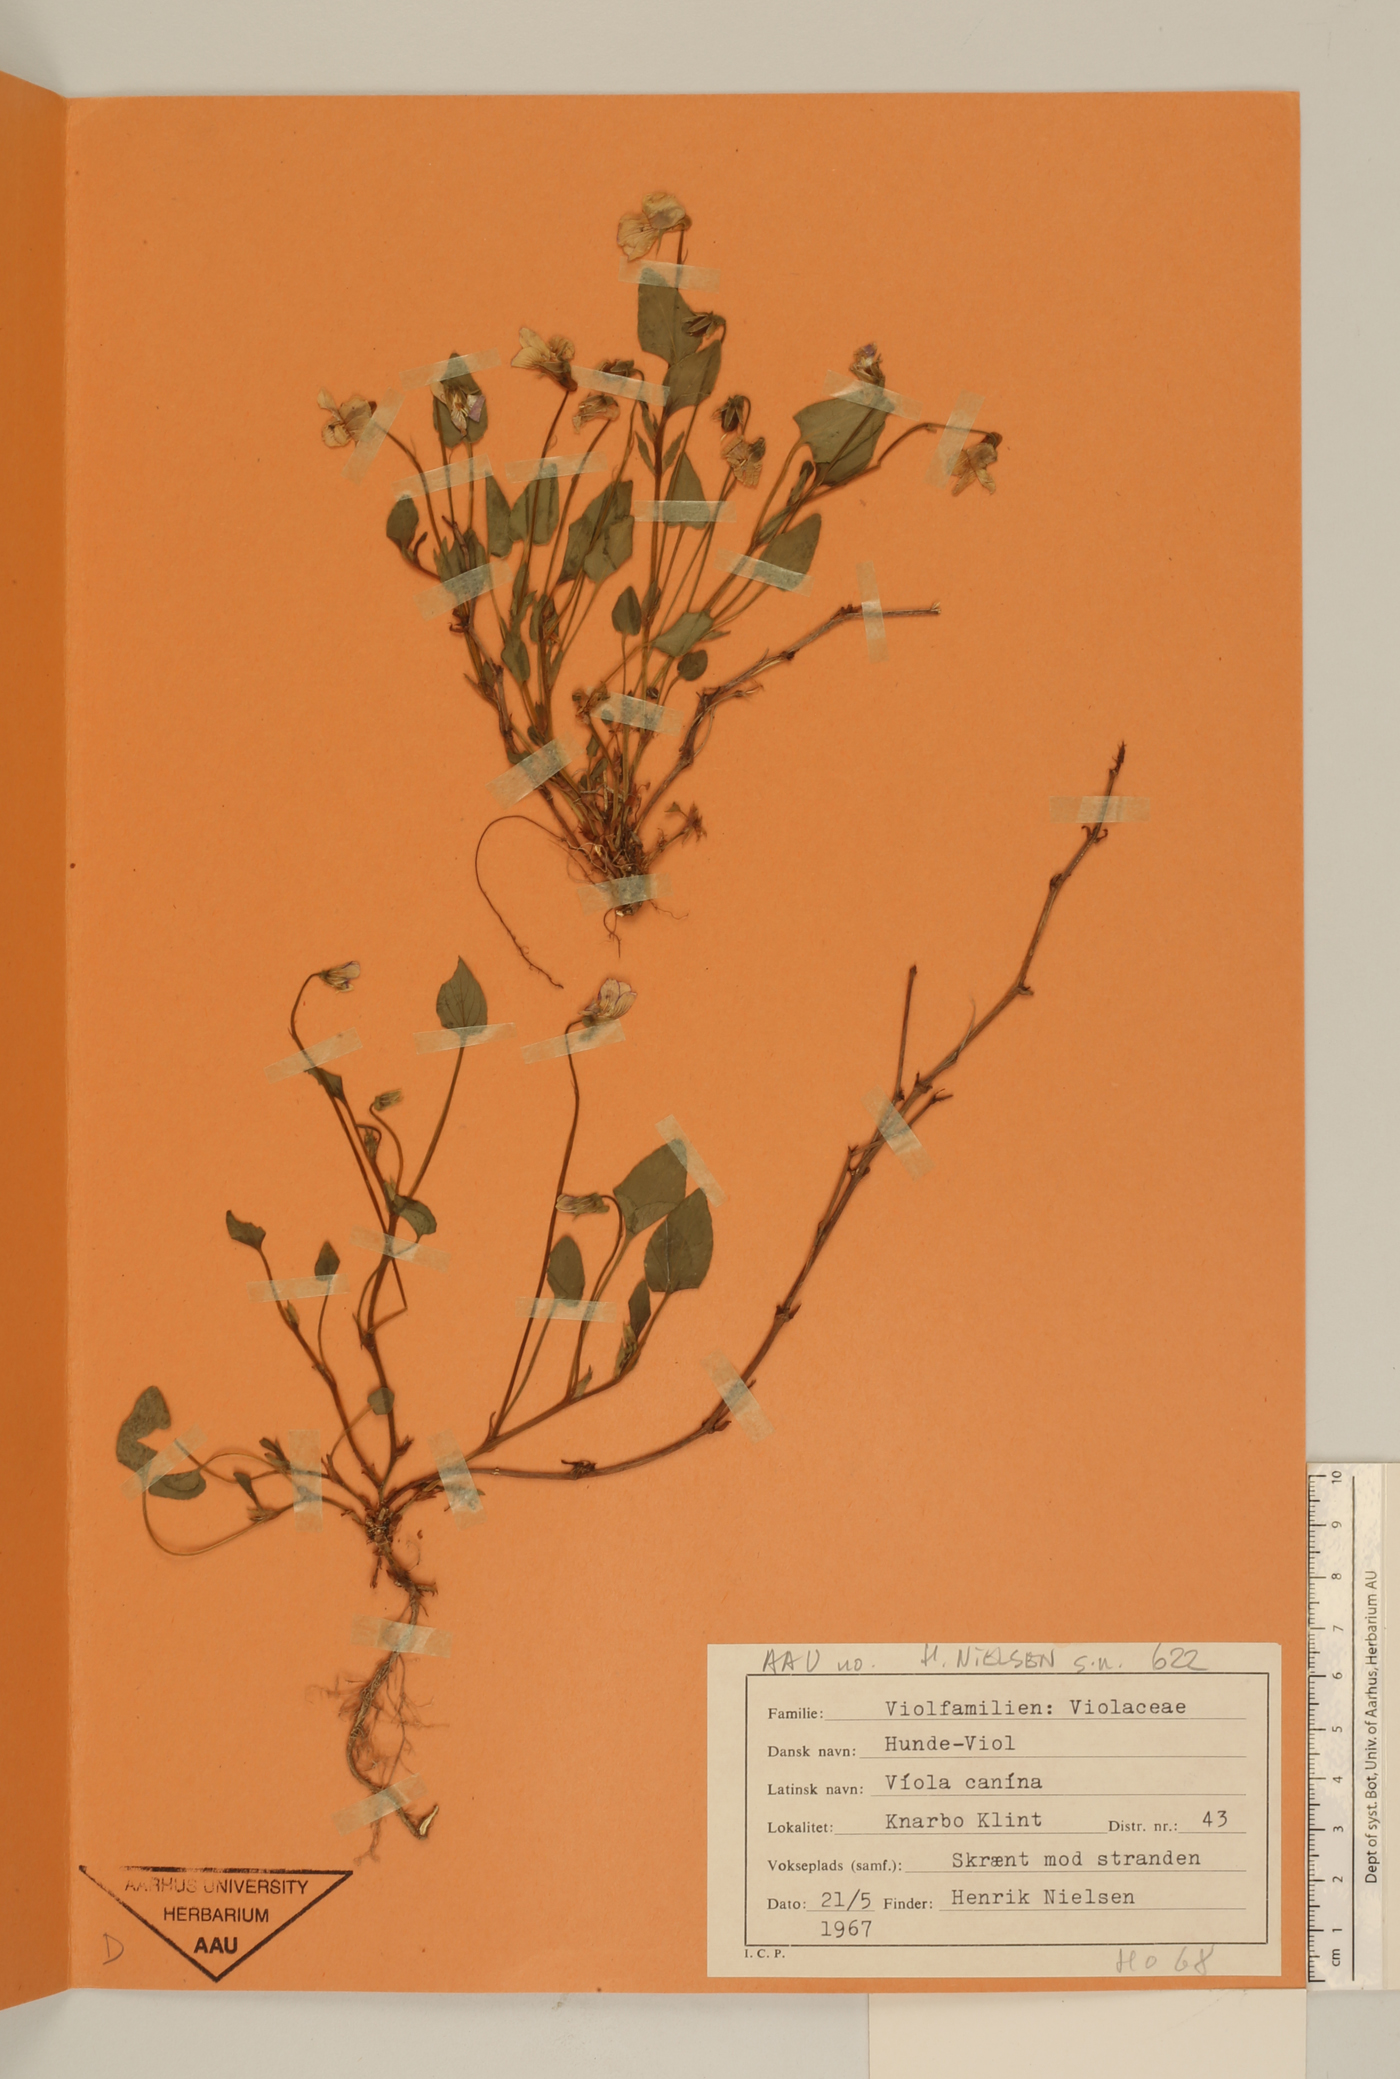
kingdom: Plantae
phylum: Tracheophyta
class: Magnoliopsida
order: Malpighiales
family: Violaceae
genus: Viola
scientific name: Viola canina
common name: Heath dog-violet
